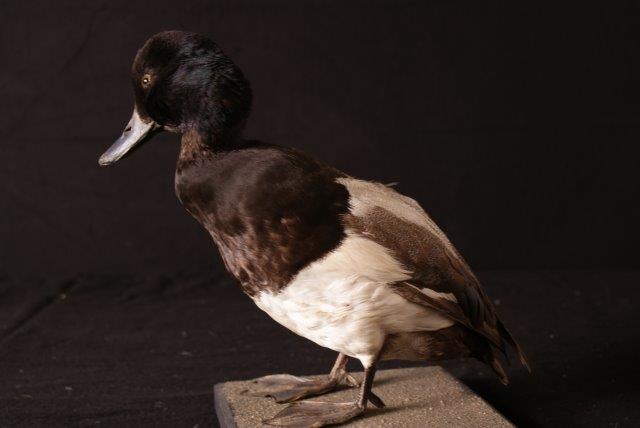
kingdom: Animalia
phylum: Chordata
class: Aves
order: Anseriformes
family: Anatidae
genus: Aythya
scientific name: Aythya marila
